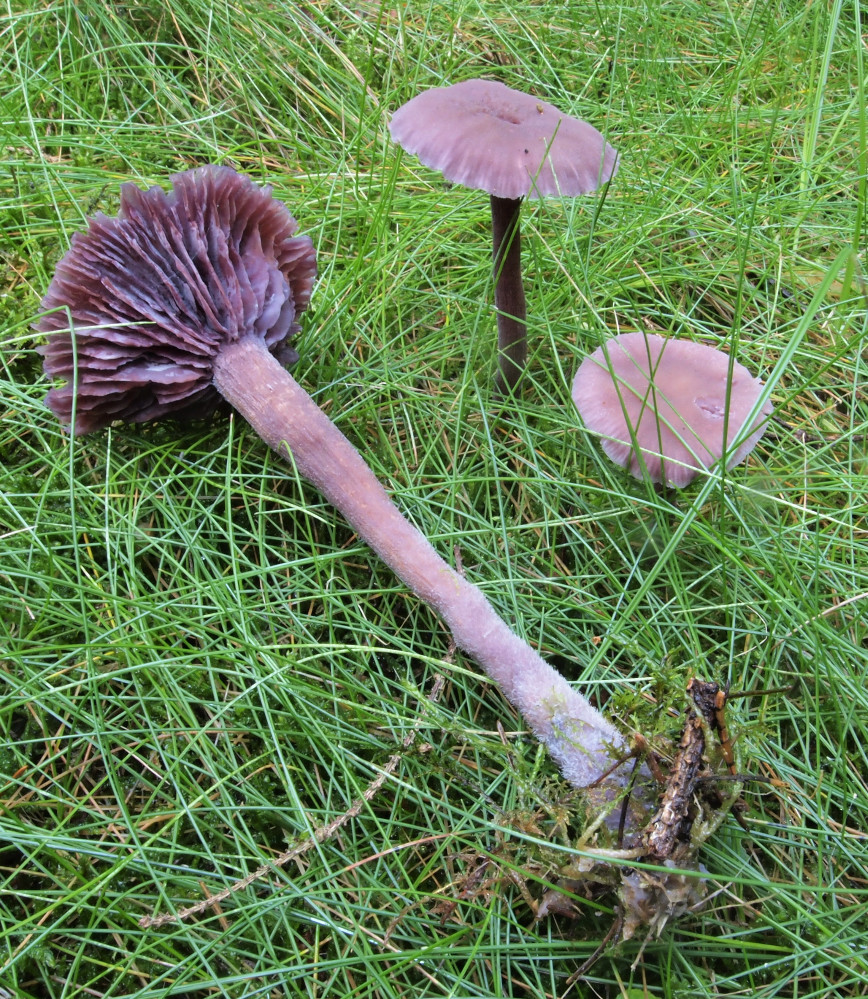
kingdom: Fungi
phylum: Basidiomycota
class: Agaricomycetes
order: Agaricales
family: Hydnangiaceae
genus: Laccaria
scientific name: Laccaria amethystina
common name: violet ametysthat
